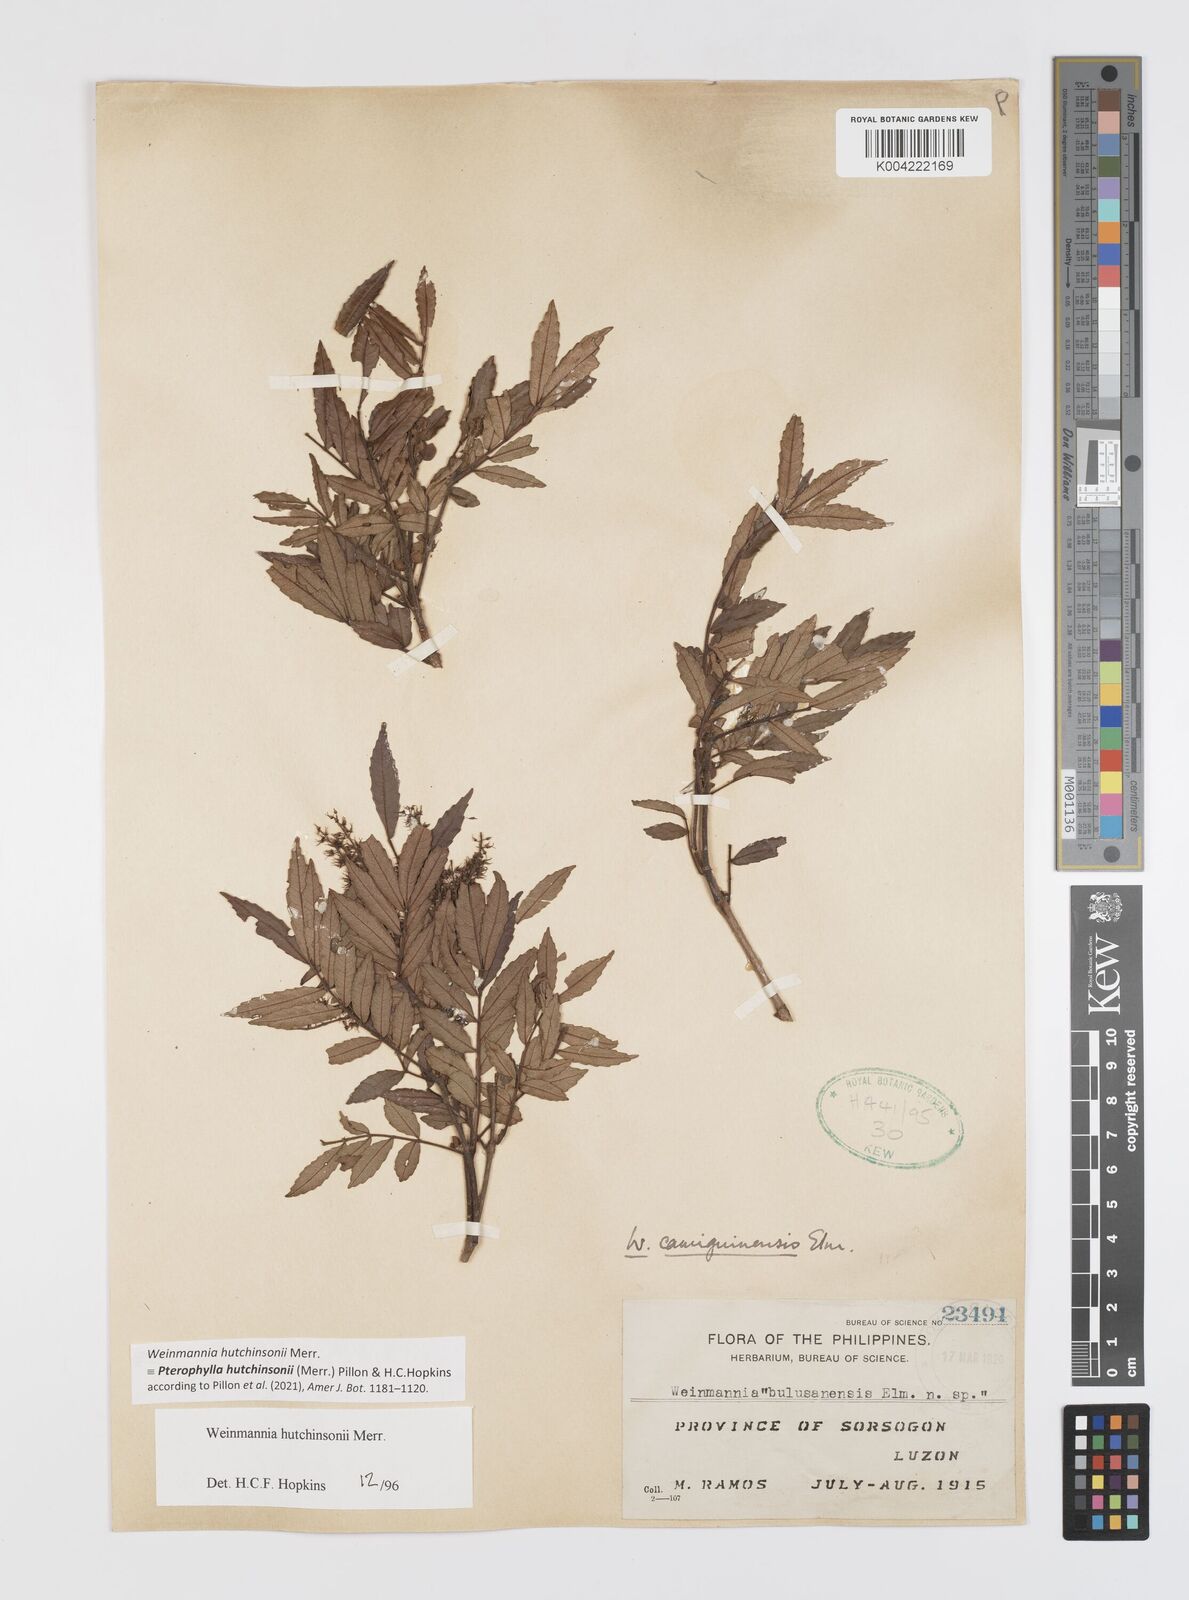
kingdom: Plantae
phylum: Tracheophyta
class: Magnoliopsida
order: Oxalidales
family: Cunoniaceae
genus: Pterophylla
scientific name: Pterophylla hutchinsonii
